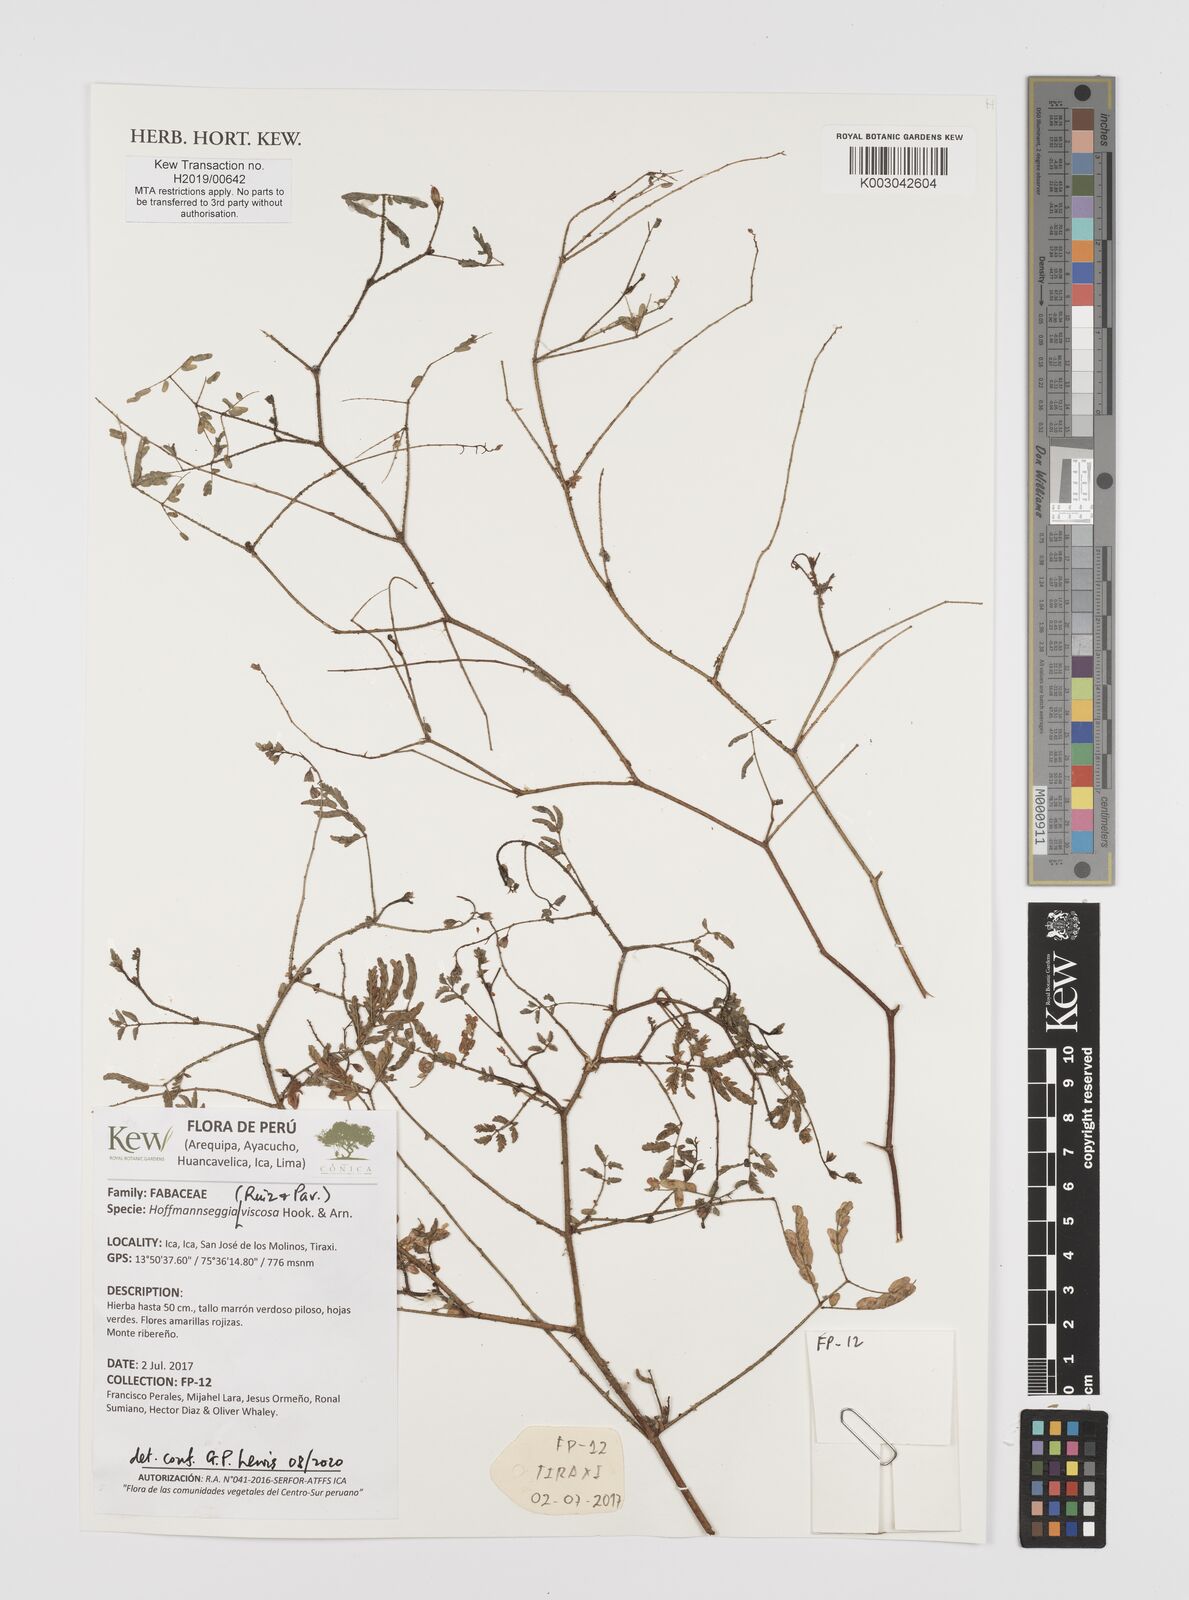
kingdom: Plantae
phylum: Tracheophyta
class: Magnoliopsida
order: Fabales
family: Fabaceae
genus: Hoffmannseggia
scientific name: Hoffmannseggia viscosa
